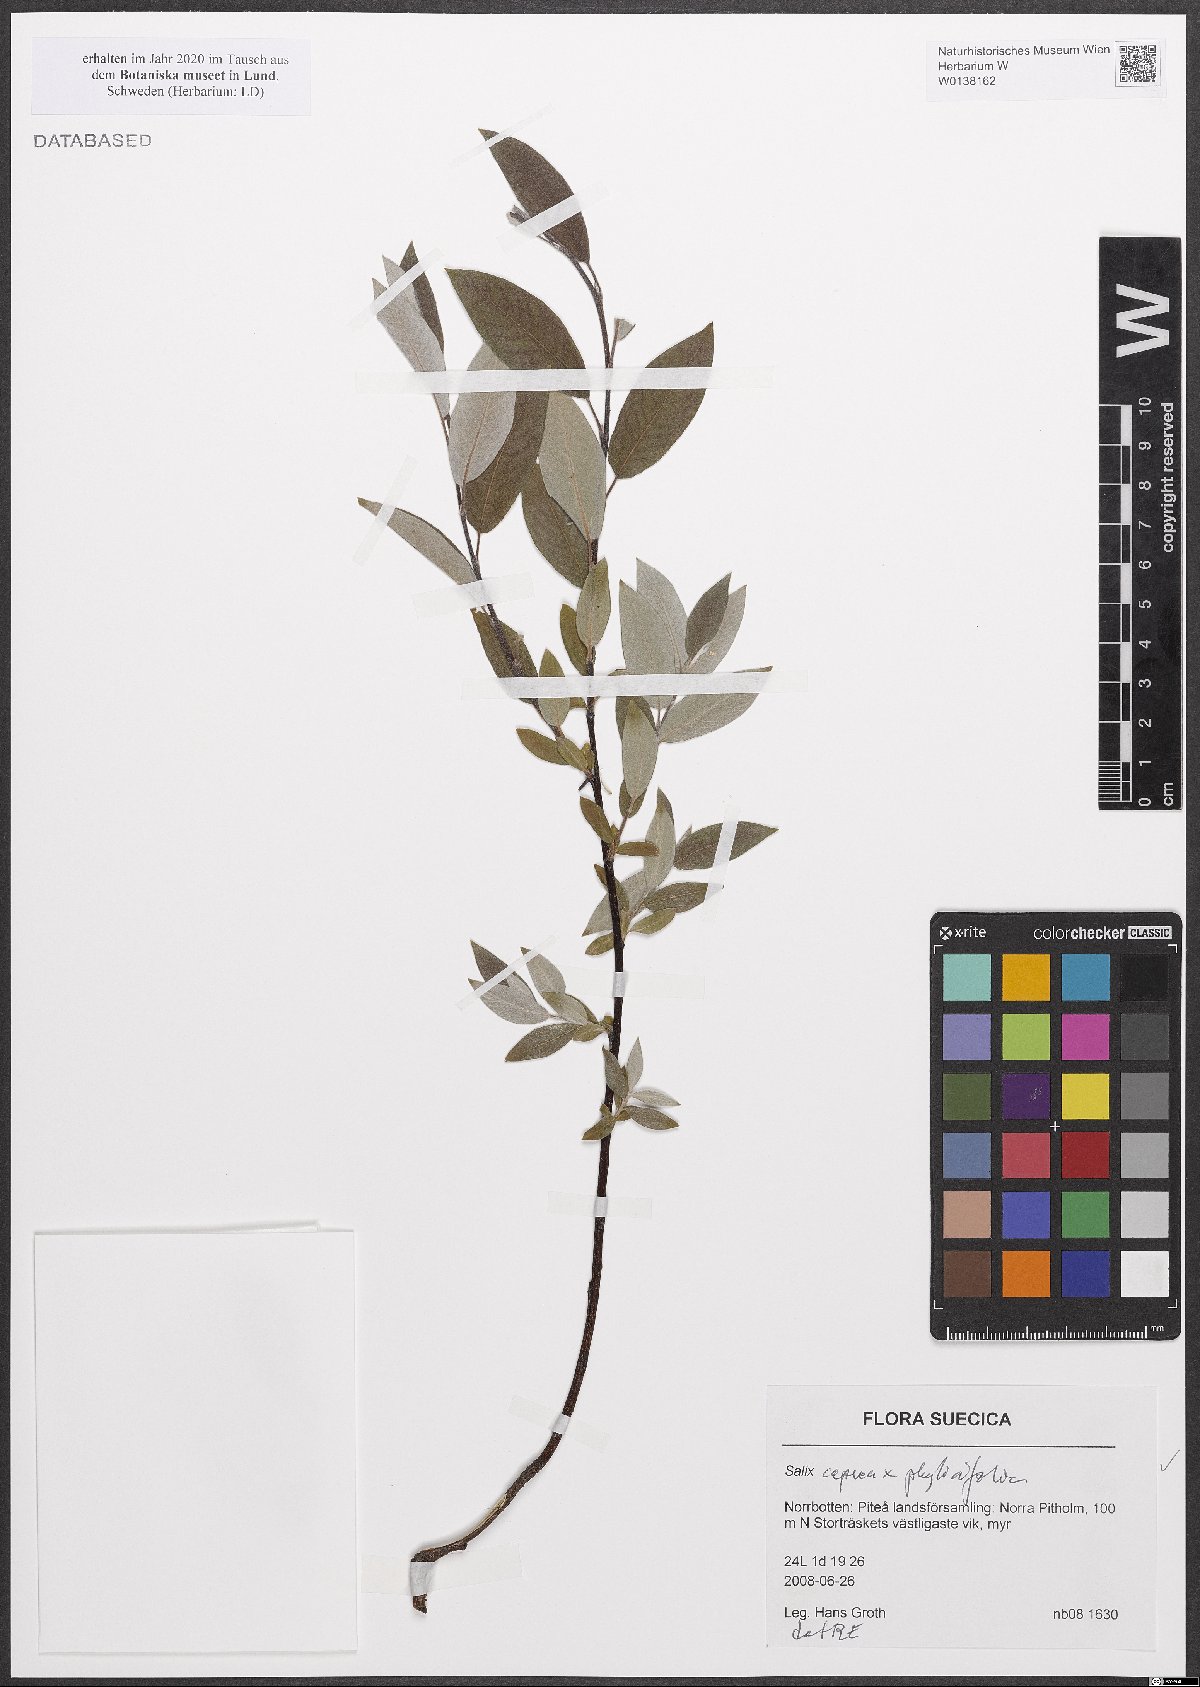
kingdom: Plantae
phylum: Tracheophyta
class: Magnoliopsida
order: Malpighiales
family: Salicaceae
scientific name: Salicaceae
